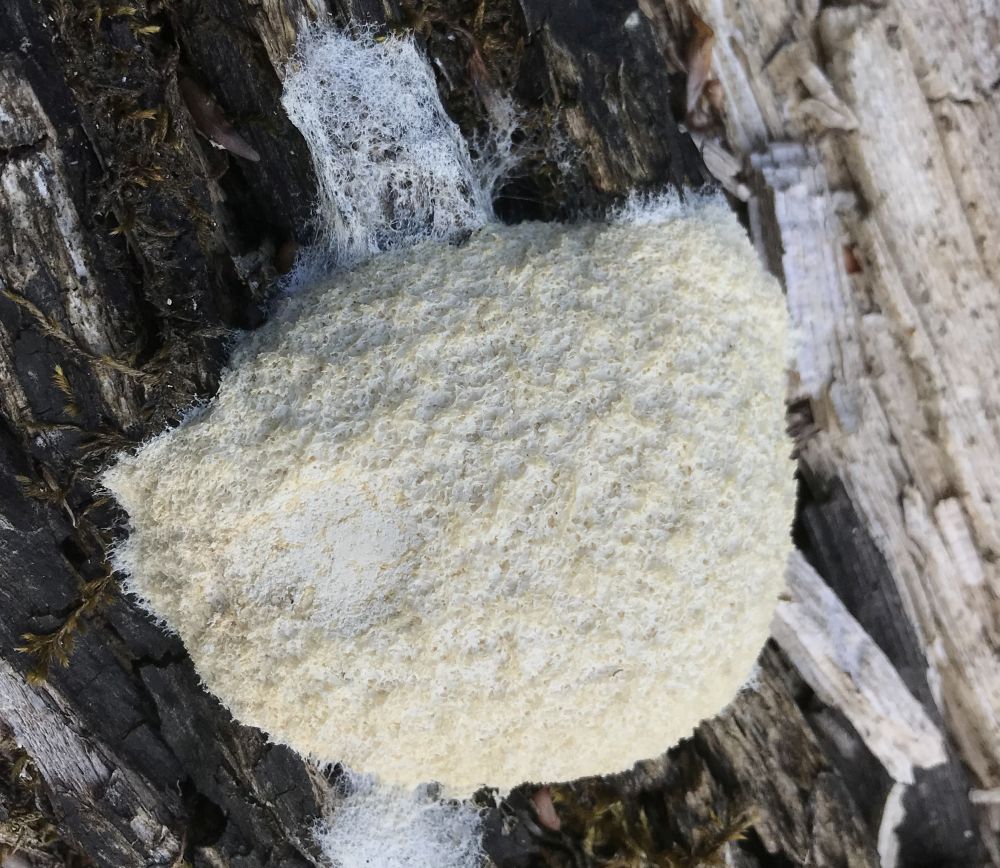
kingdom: Protozoa
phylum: Mycetozoa
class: Myxomycetes
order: Physarales
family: Physaraceae
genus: Fuligo
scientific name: Fuligo septica
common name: gul troldsmør
